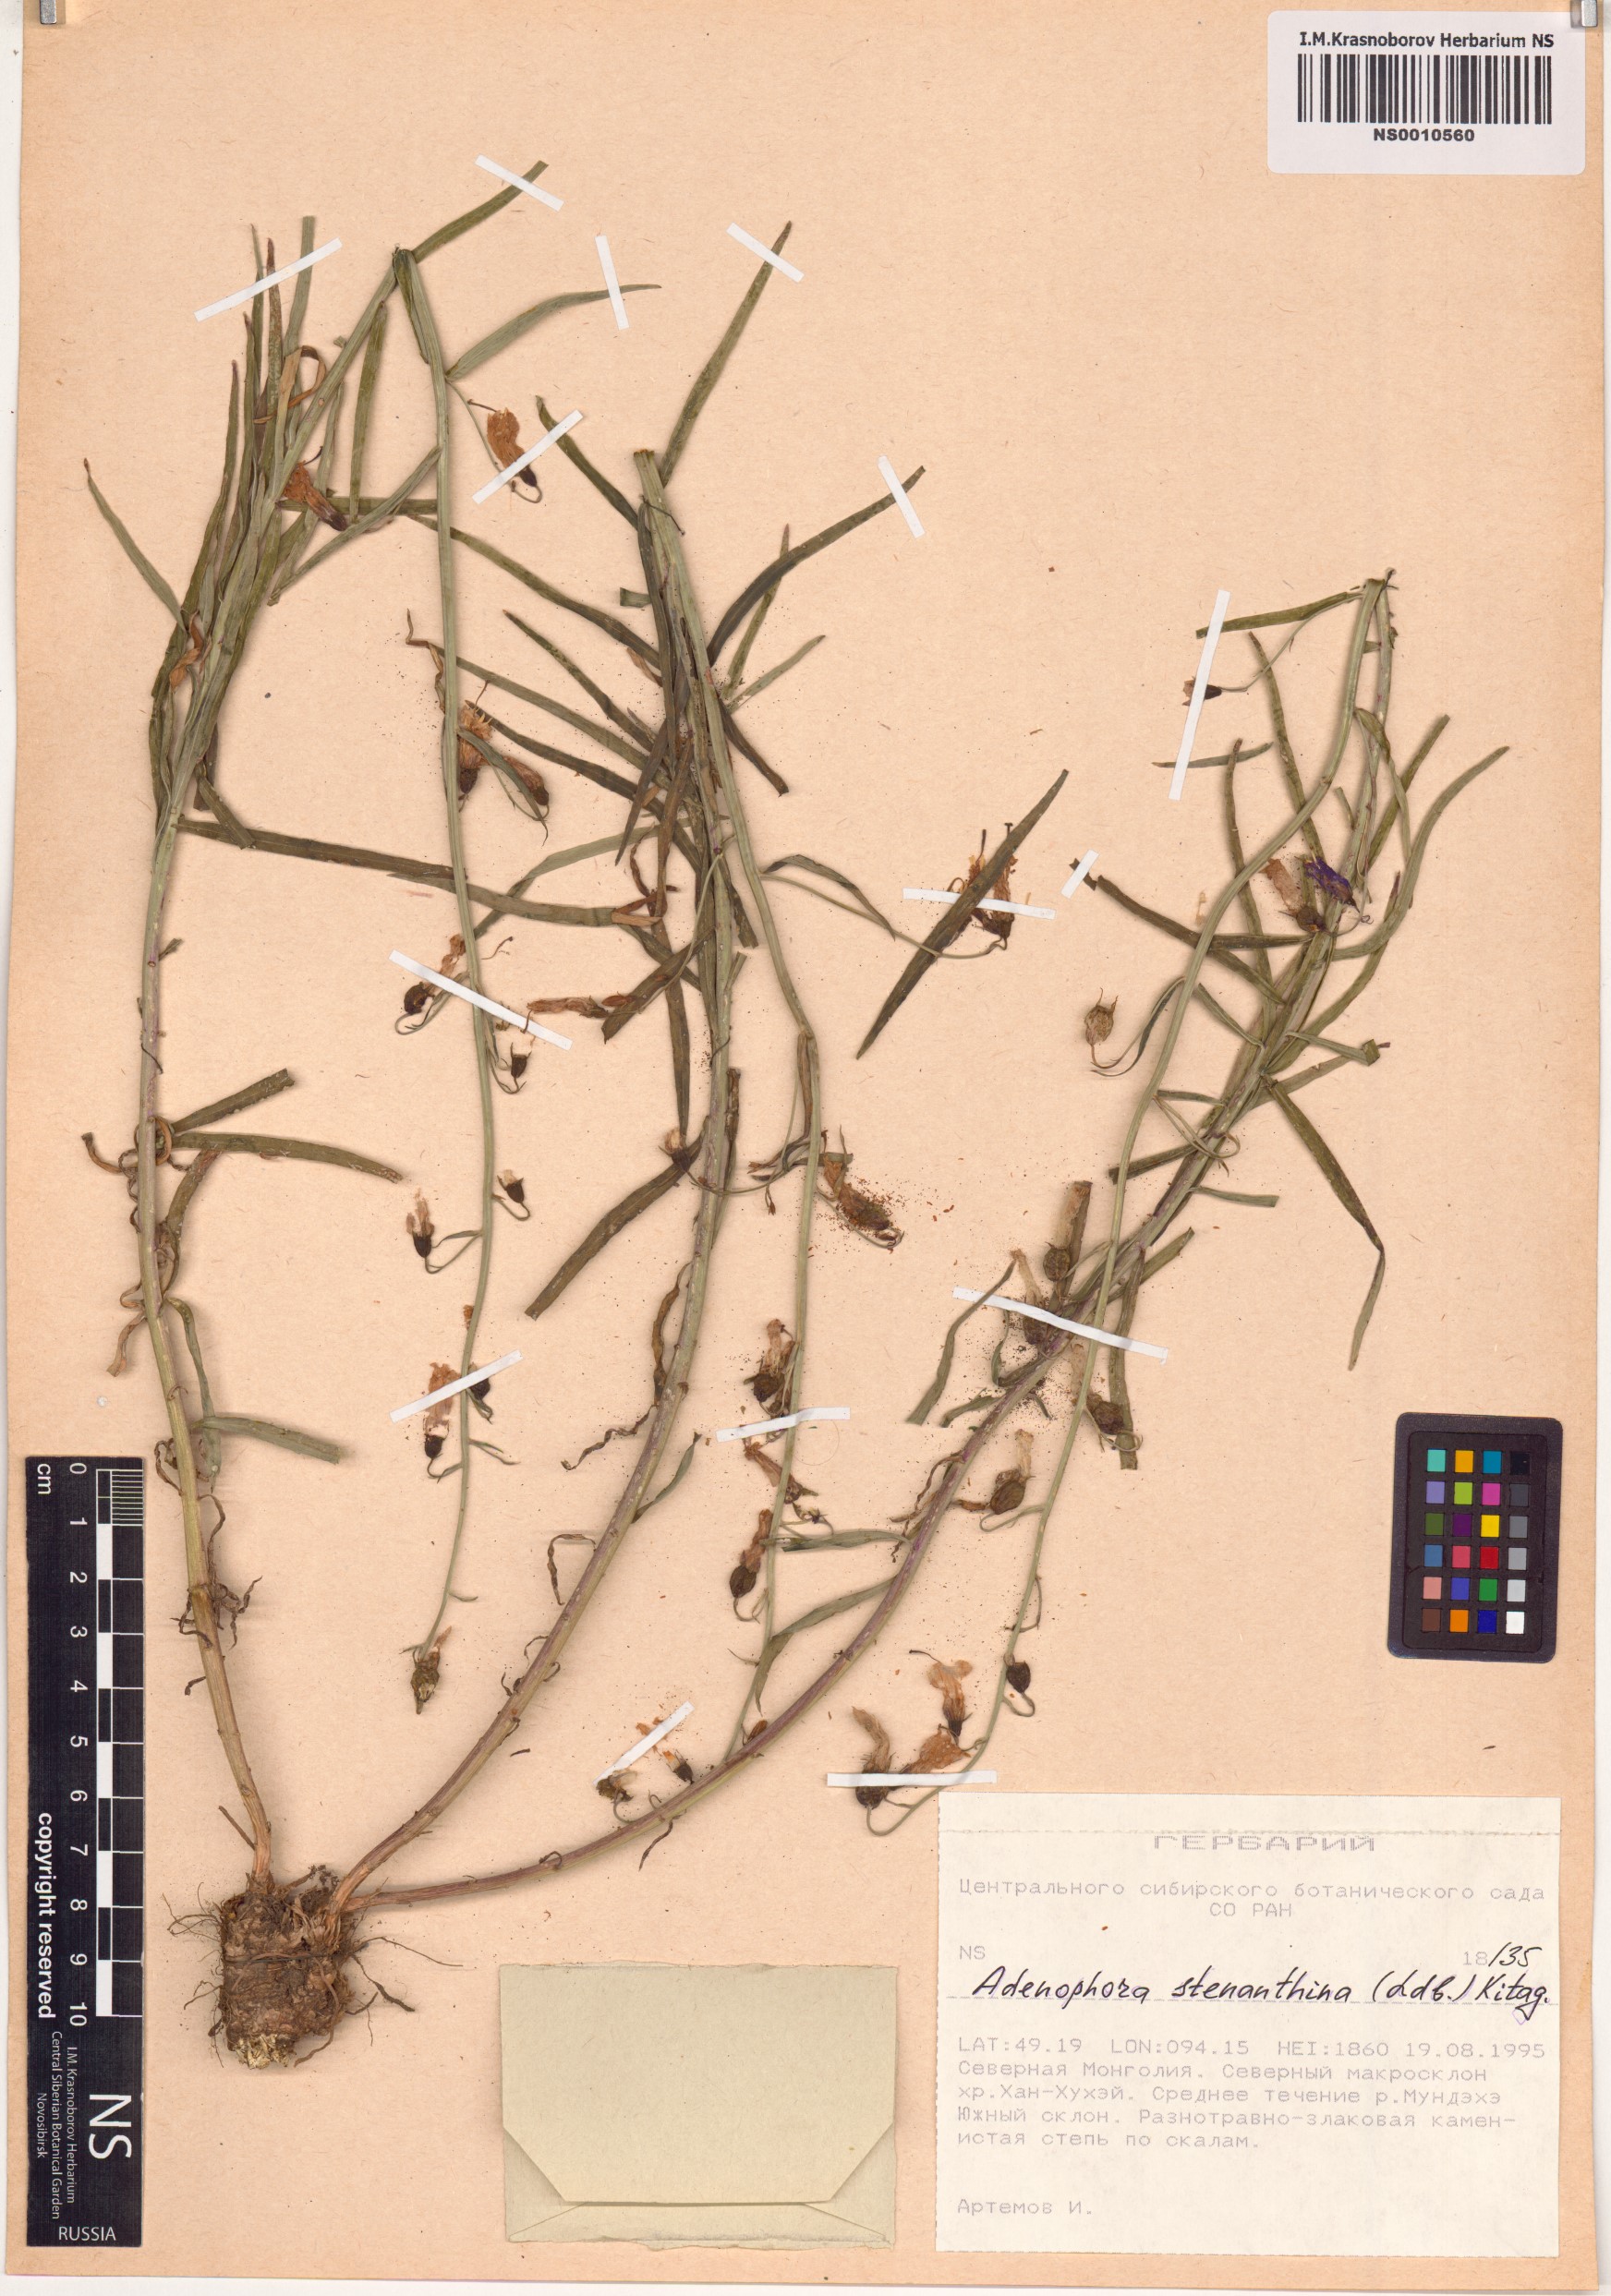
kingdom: Plantae
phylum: Tracheophyta
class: Magnoliopsida
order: Asterales
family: Campanulaceae
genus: Adenophora
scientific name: Adenophora stenanthina
